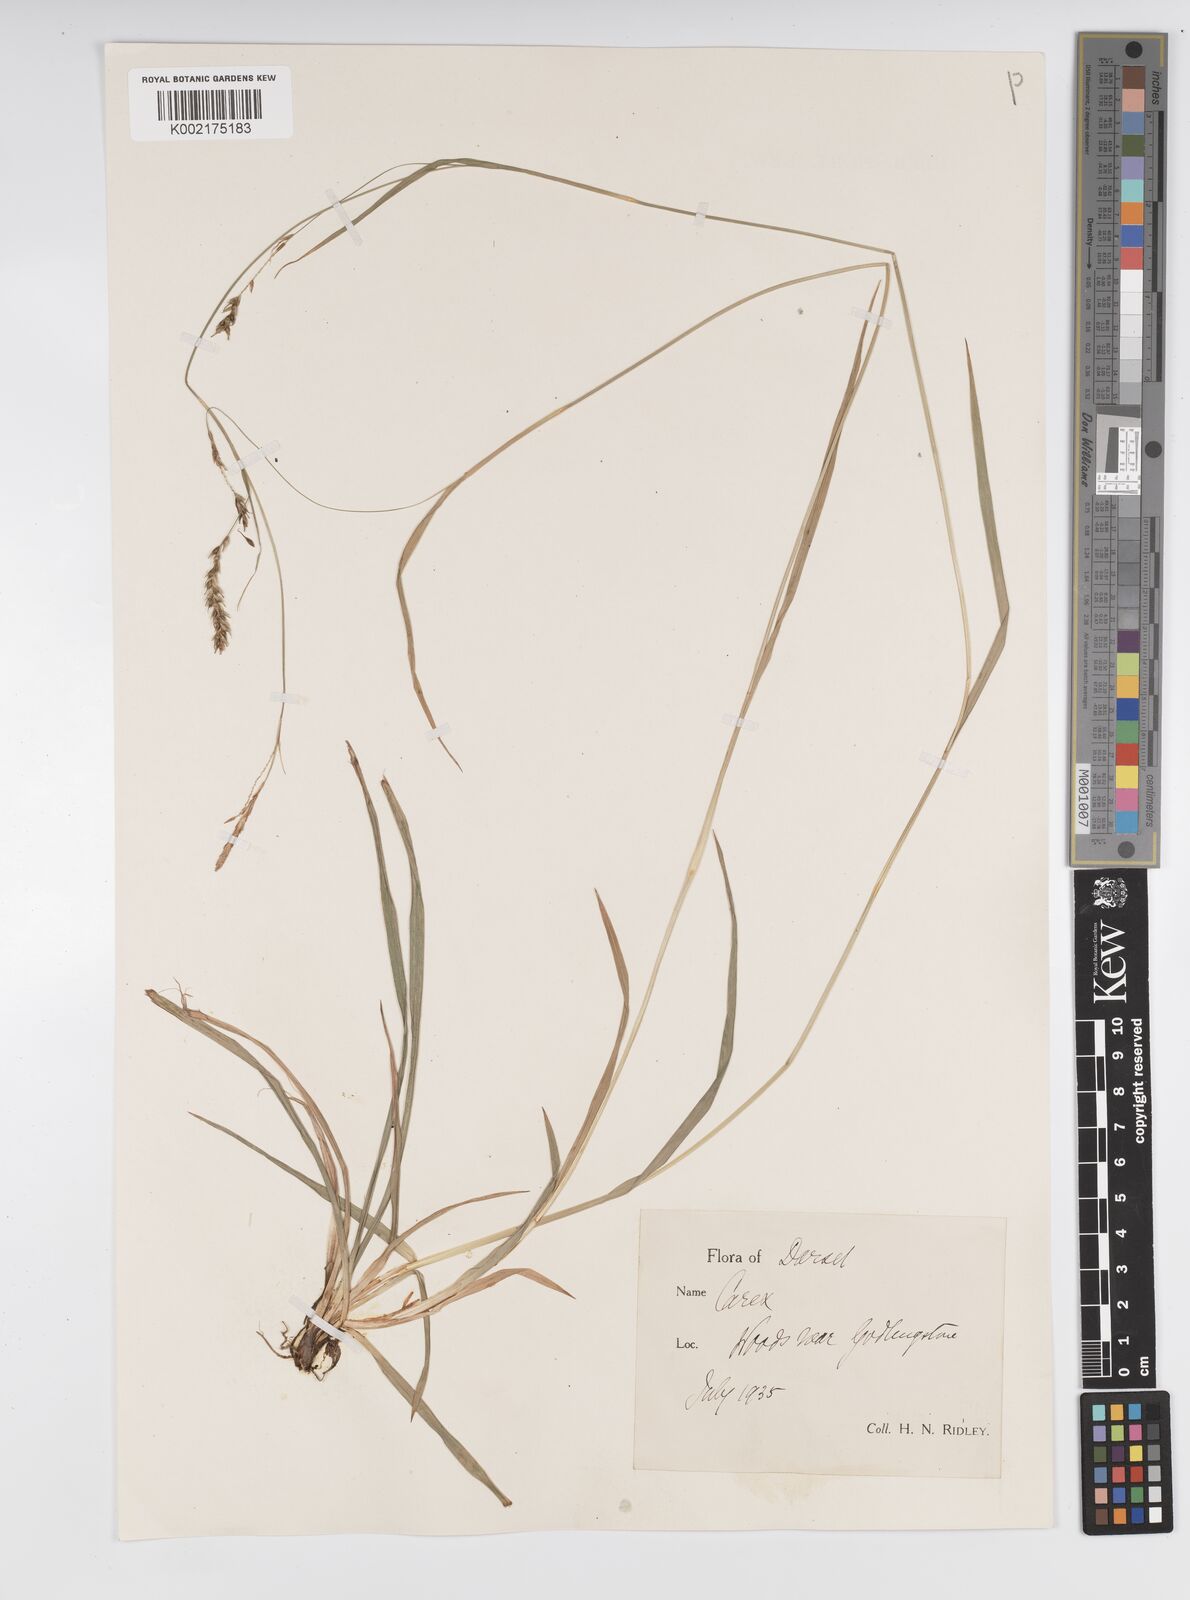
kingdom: Plantae
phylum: Tracheophyta
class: Liliopsida
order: Poales
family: Cyperaceae
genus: Carex
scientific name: Carex sylvatica
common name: Wood-sedge
